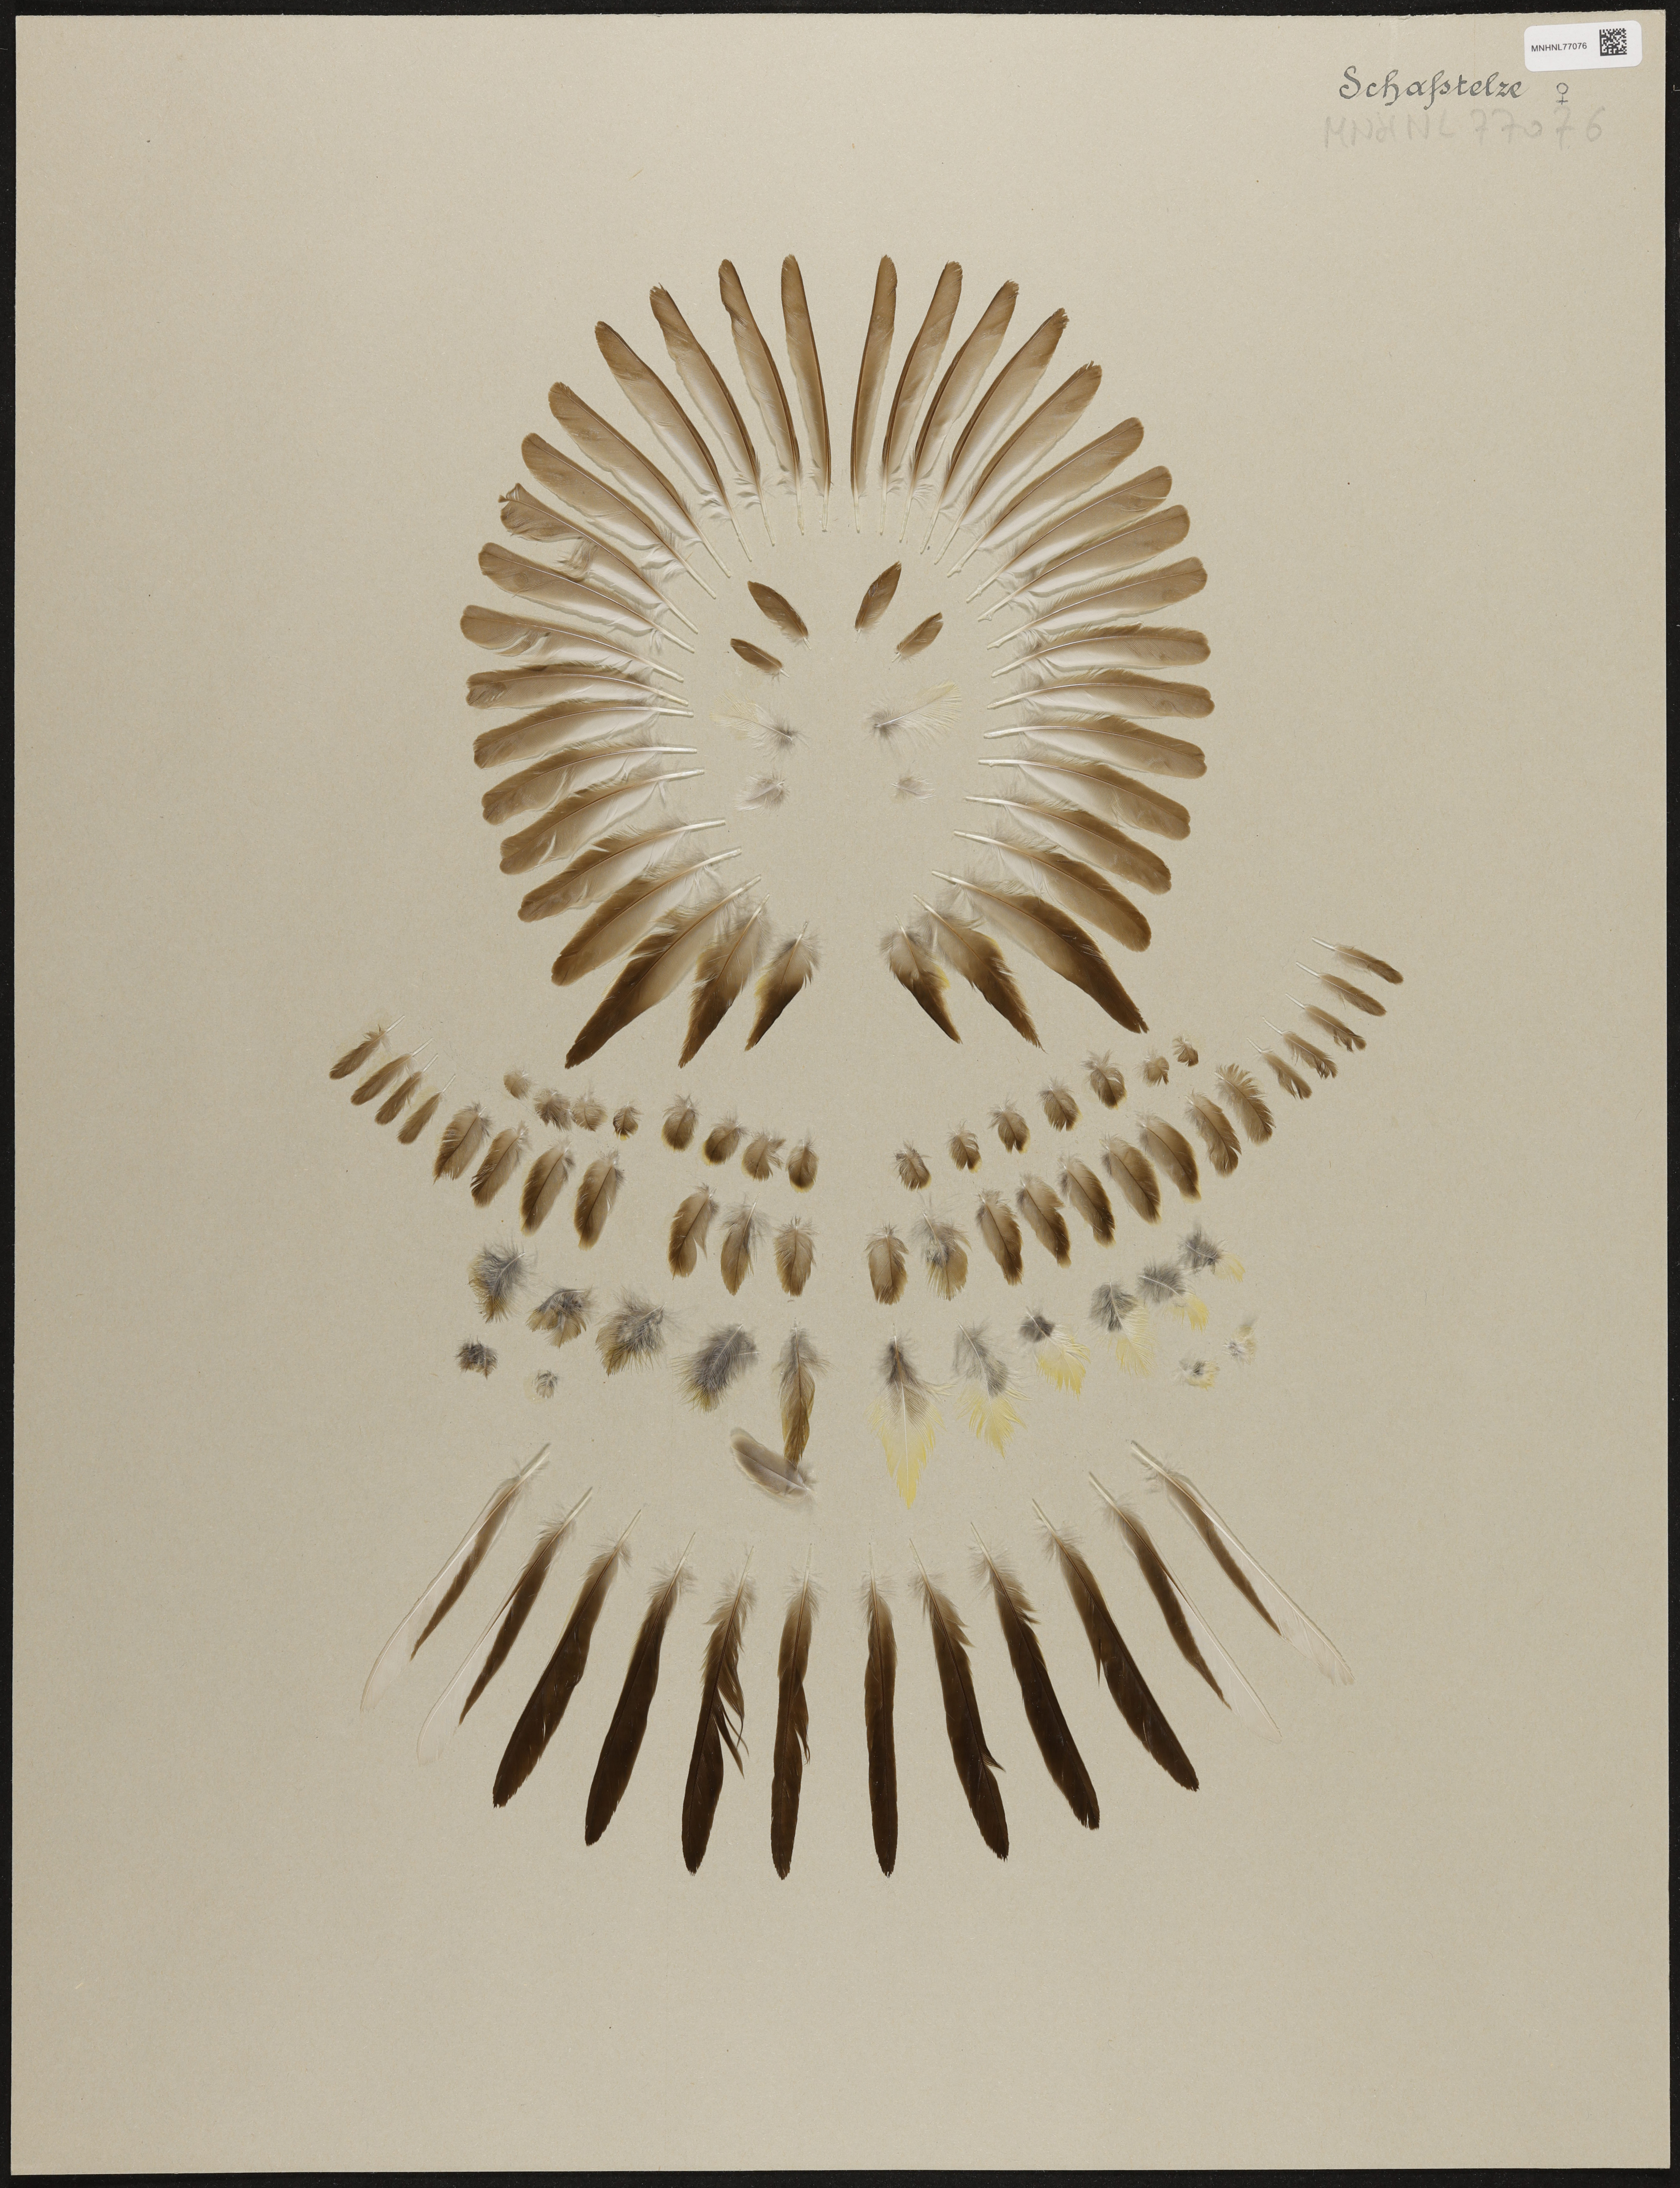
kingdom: Animalia
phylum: Chordata
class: Aves
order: Passeriformes
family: Motacillidae
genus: Motacilla
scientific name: Motacilla flava
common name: Western yellow wagtail
